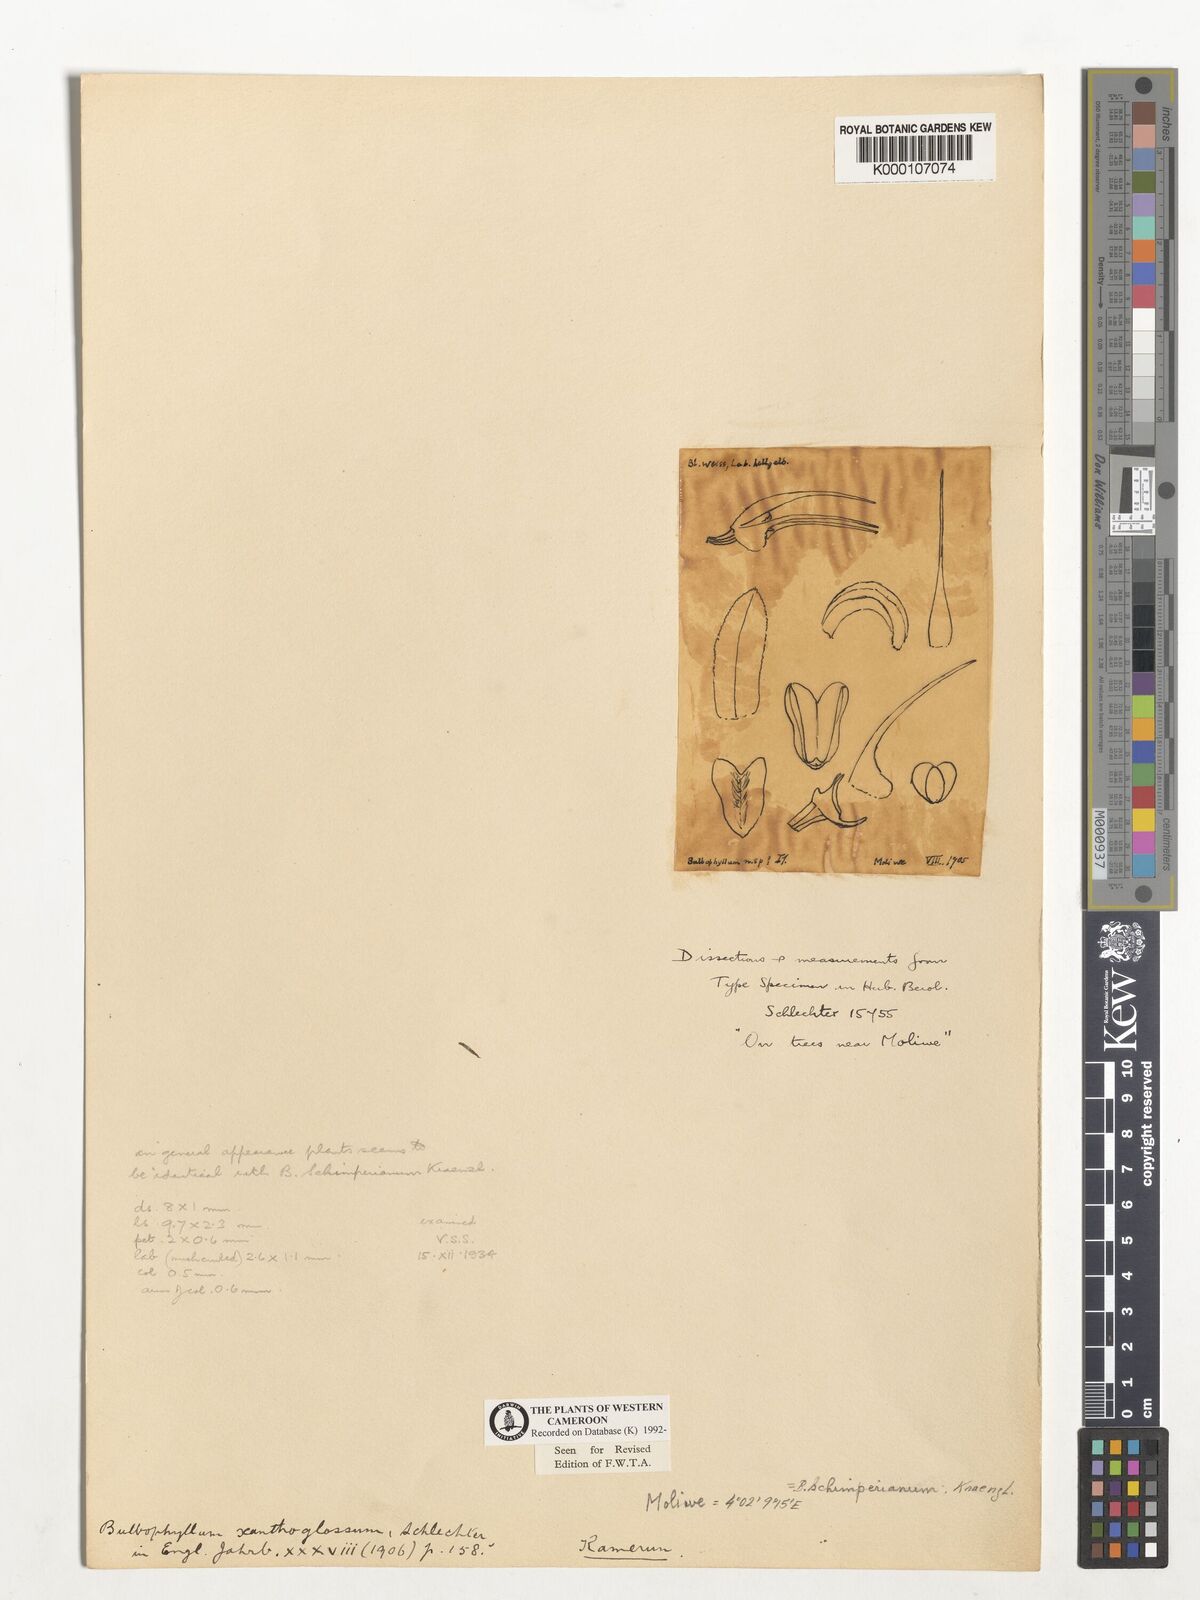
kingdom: Plantae
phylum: Tracheophyta
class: Liliopsida
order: Asparagales
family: Orchidaceae
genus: Bulbophyllum
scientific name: Bulbophyllum schimperianum
